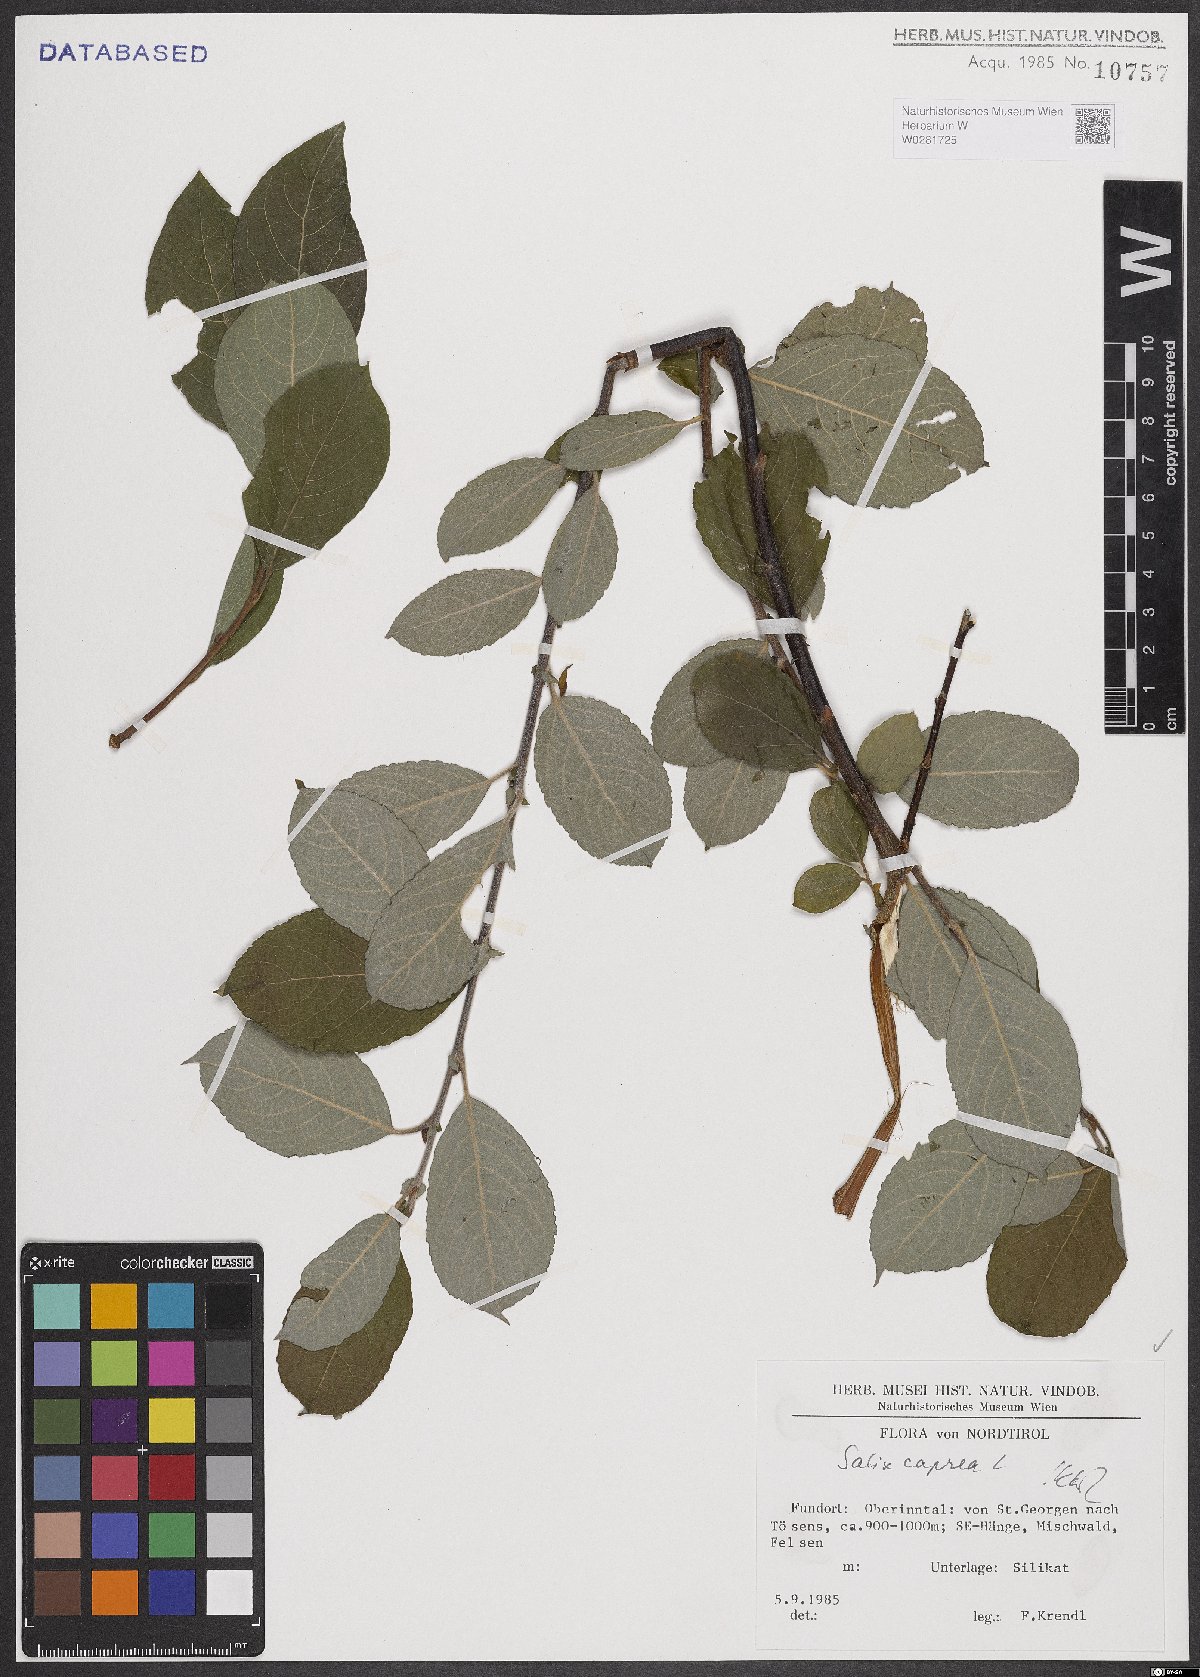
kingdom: Plantae
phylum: Tracheophyta
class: Magnoliopsida
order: Malpighiales
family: Salicaceae
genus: Salix
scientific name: Salix caprea
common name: Goat willow
